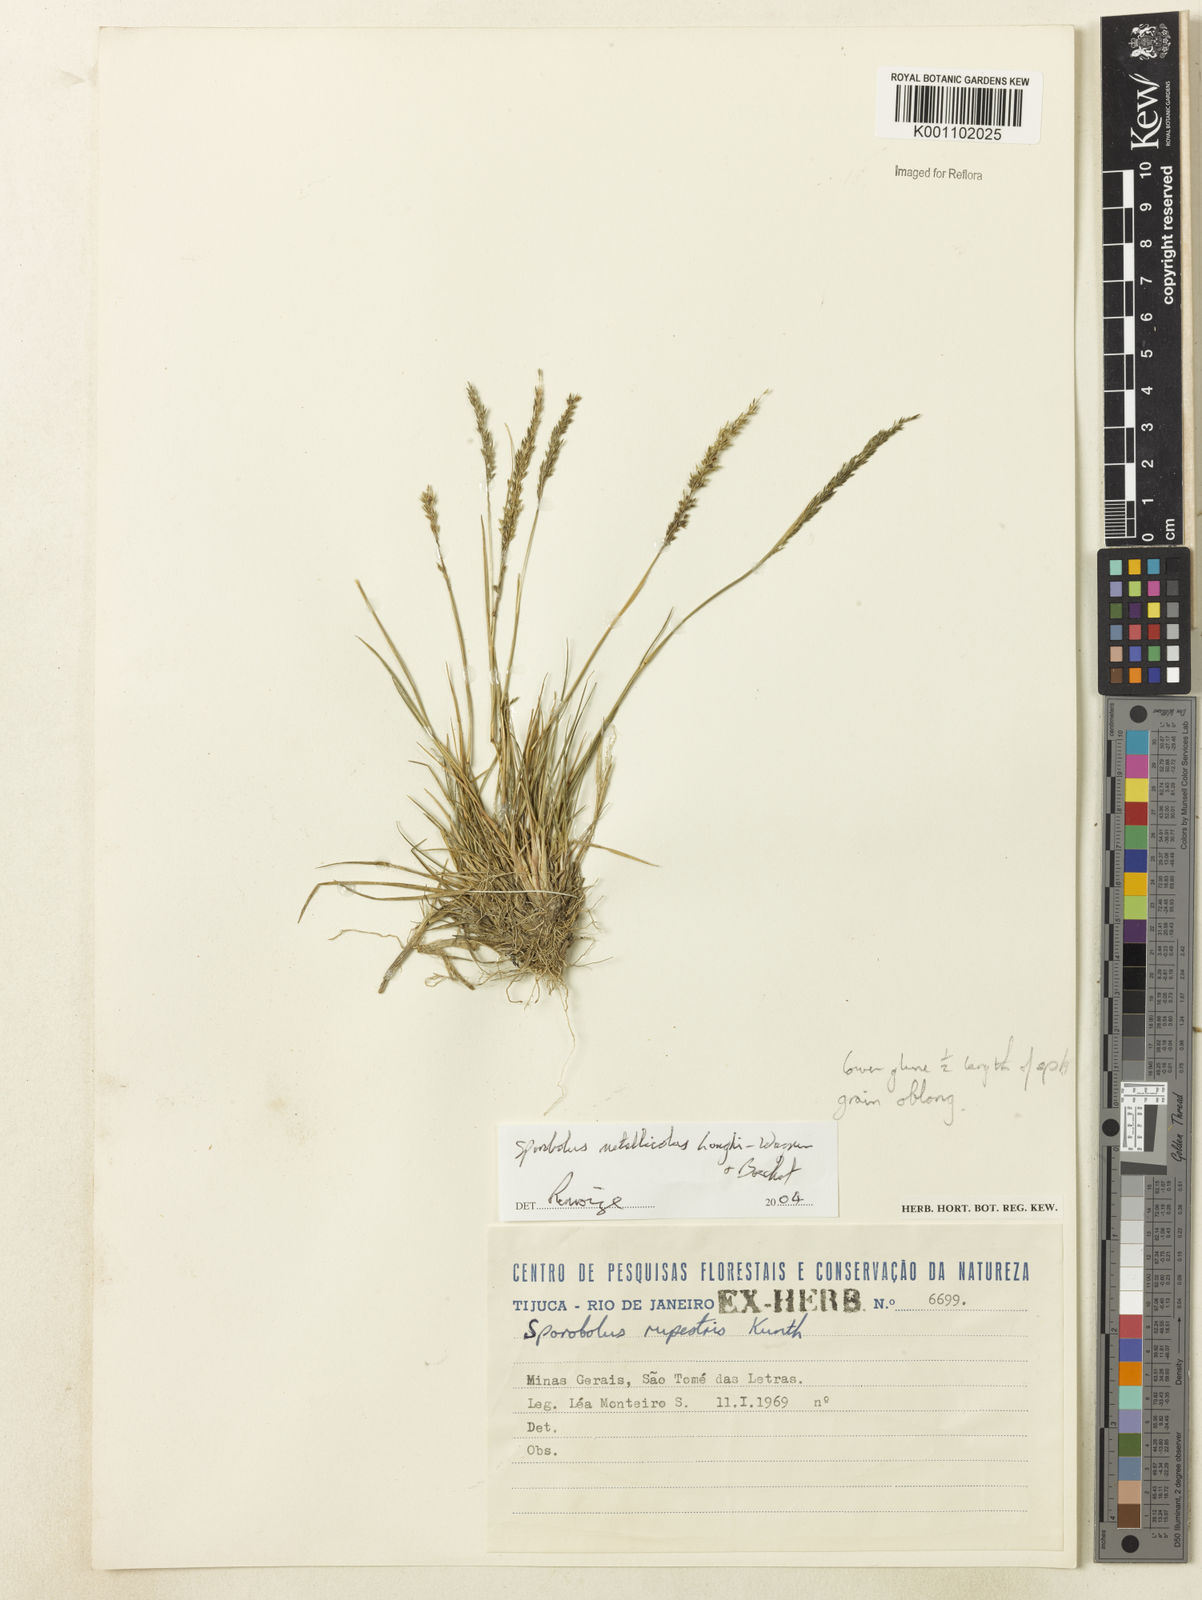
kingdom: Plantae
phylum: Tracheophyta
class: Liliopsida
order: Poales
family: Poaceae
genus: Sporobolus
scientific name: Sporobolus metallicola
